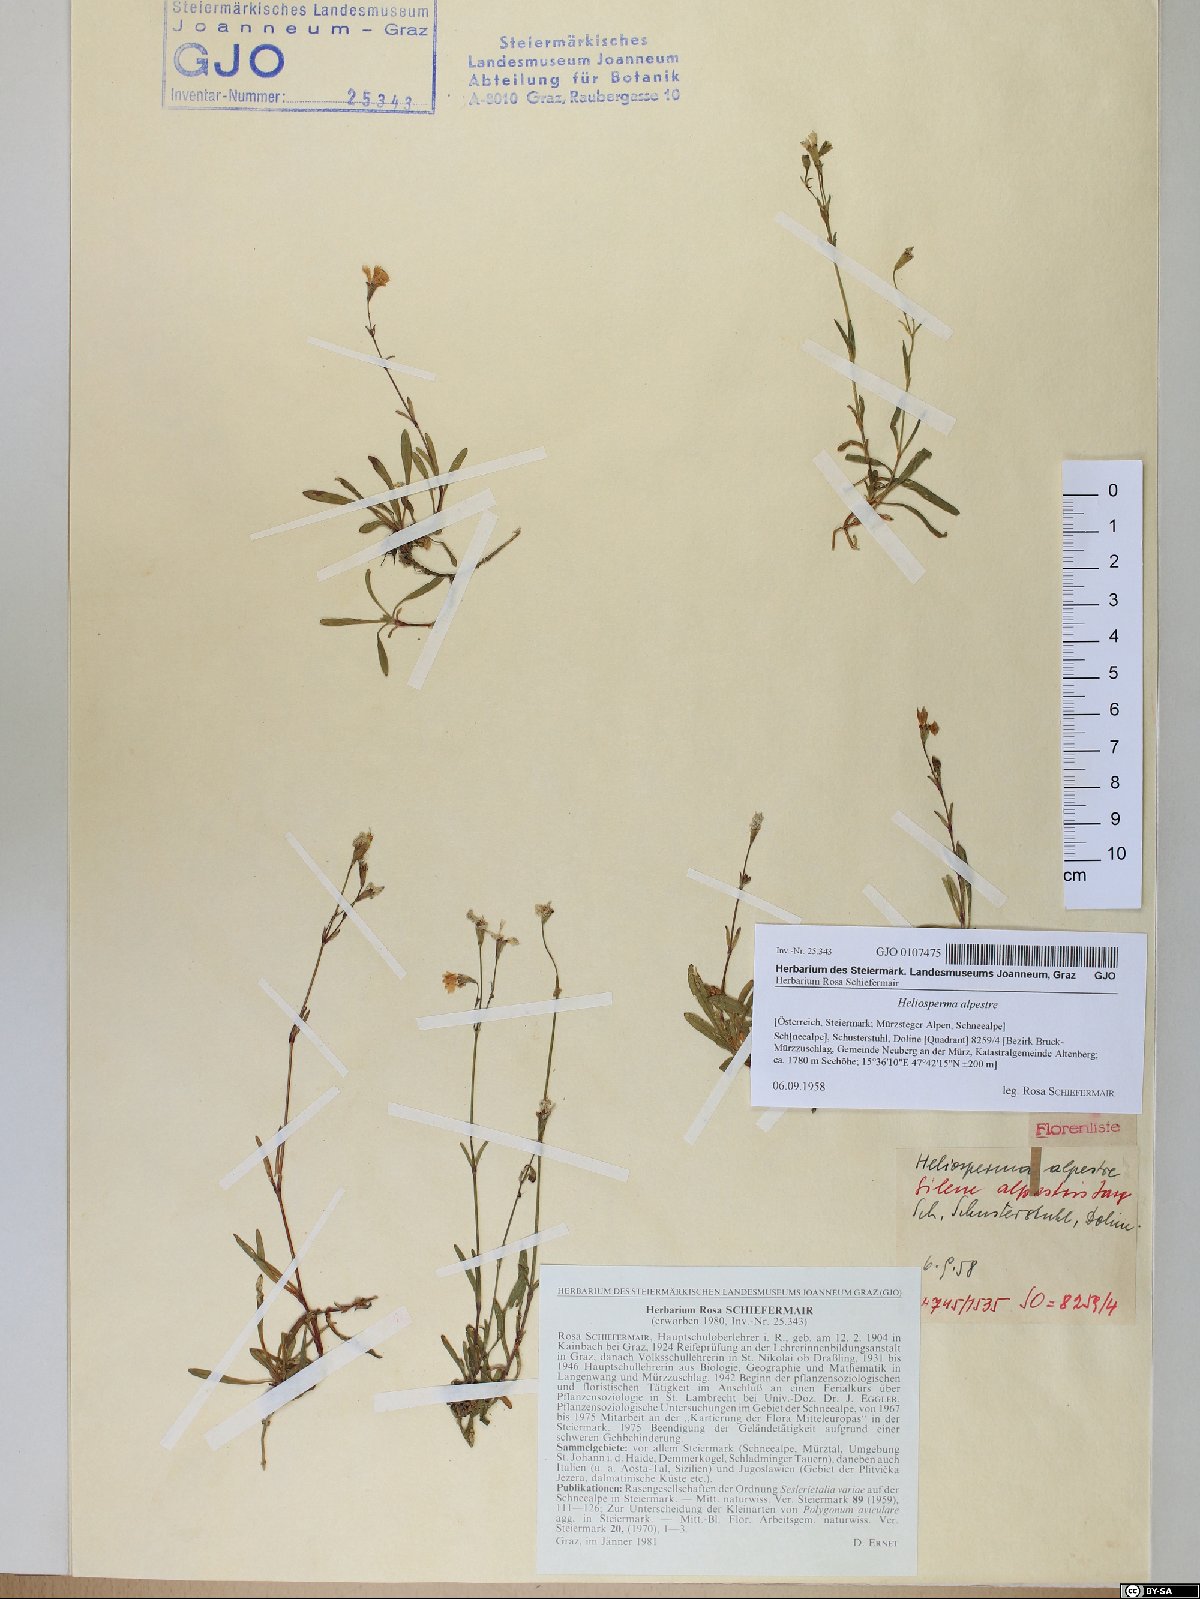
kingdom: Plantae
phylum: Tracheophyta
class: Magnoliopsida
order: Caryophyllales
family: Caryophyllaceae
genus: Heliosperma
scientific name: Heliosperma alpestre
